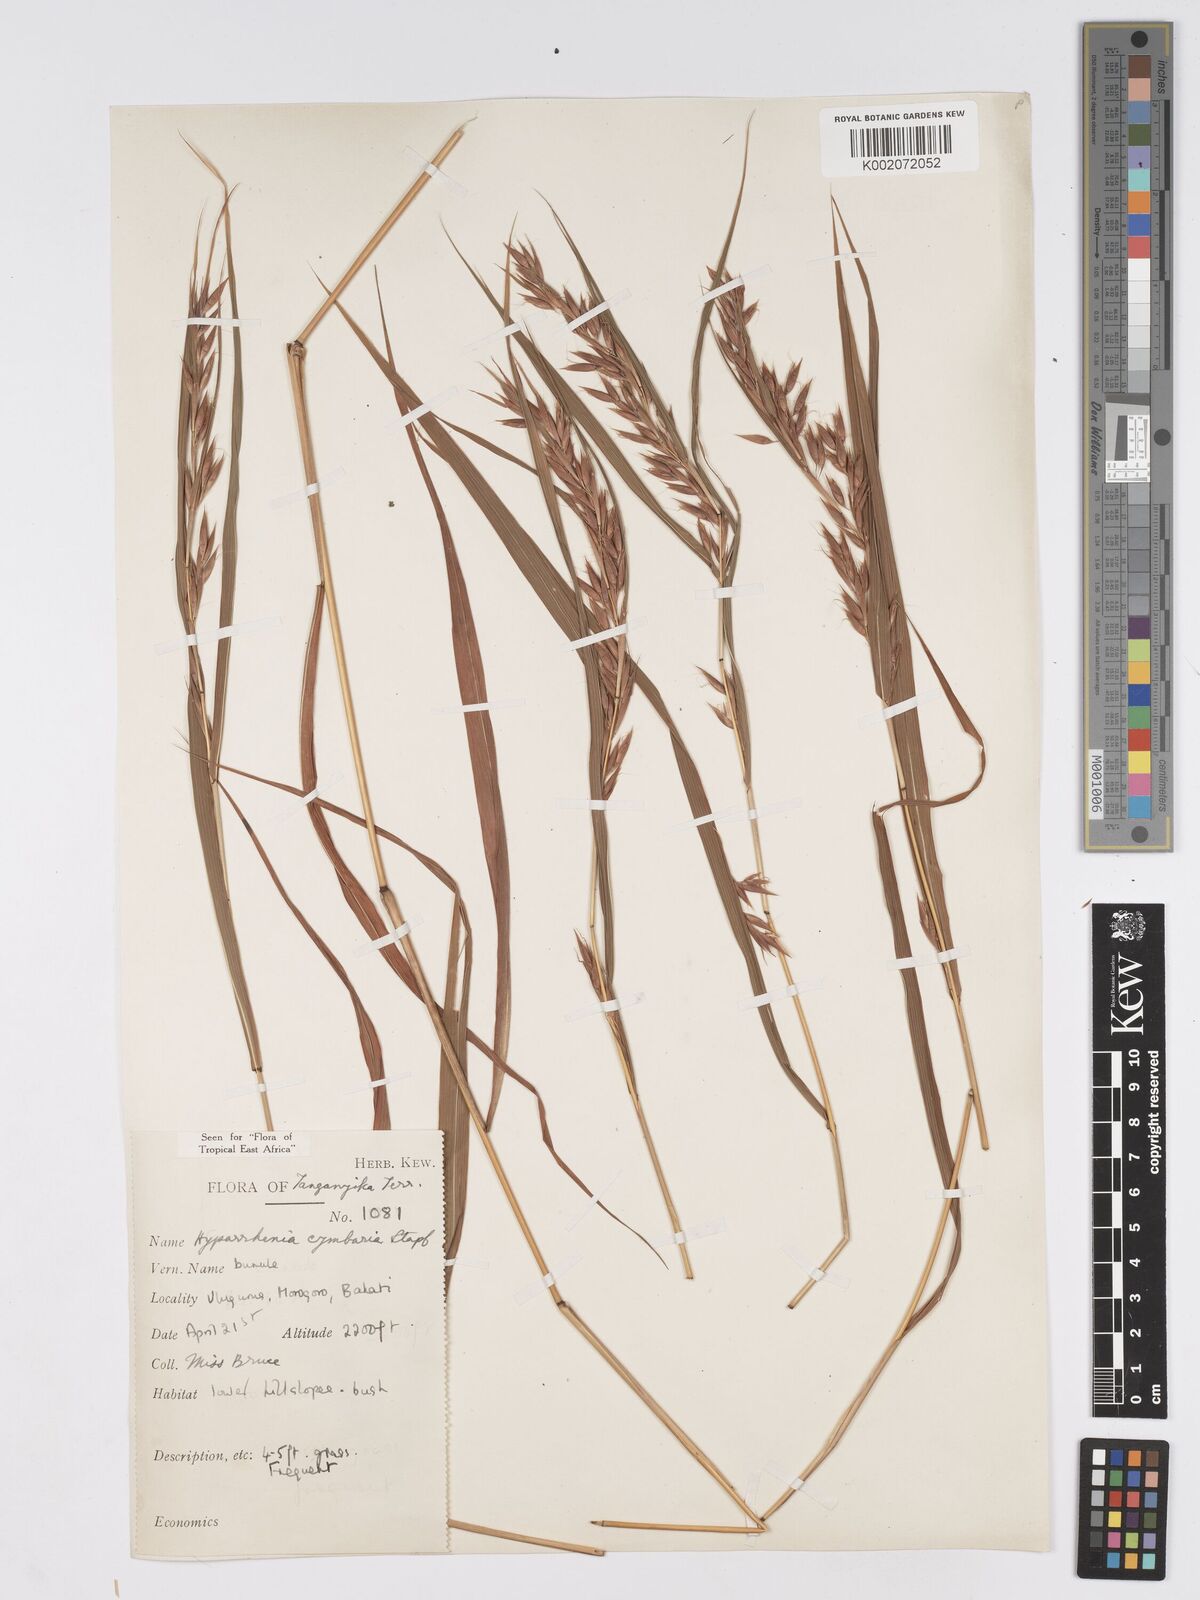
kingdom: Plantae
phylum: Tracheophyta
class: Liliopsida
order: Poales
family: Poaceae
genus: Hyparrhenia
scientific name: Hyparrhenia cymbaria
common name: Boat thatching grass
